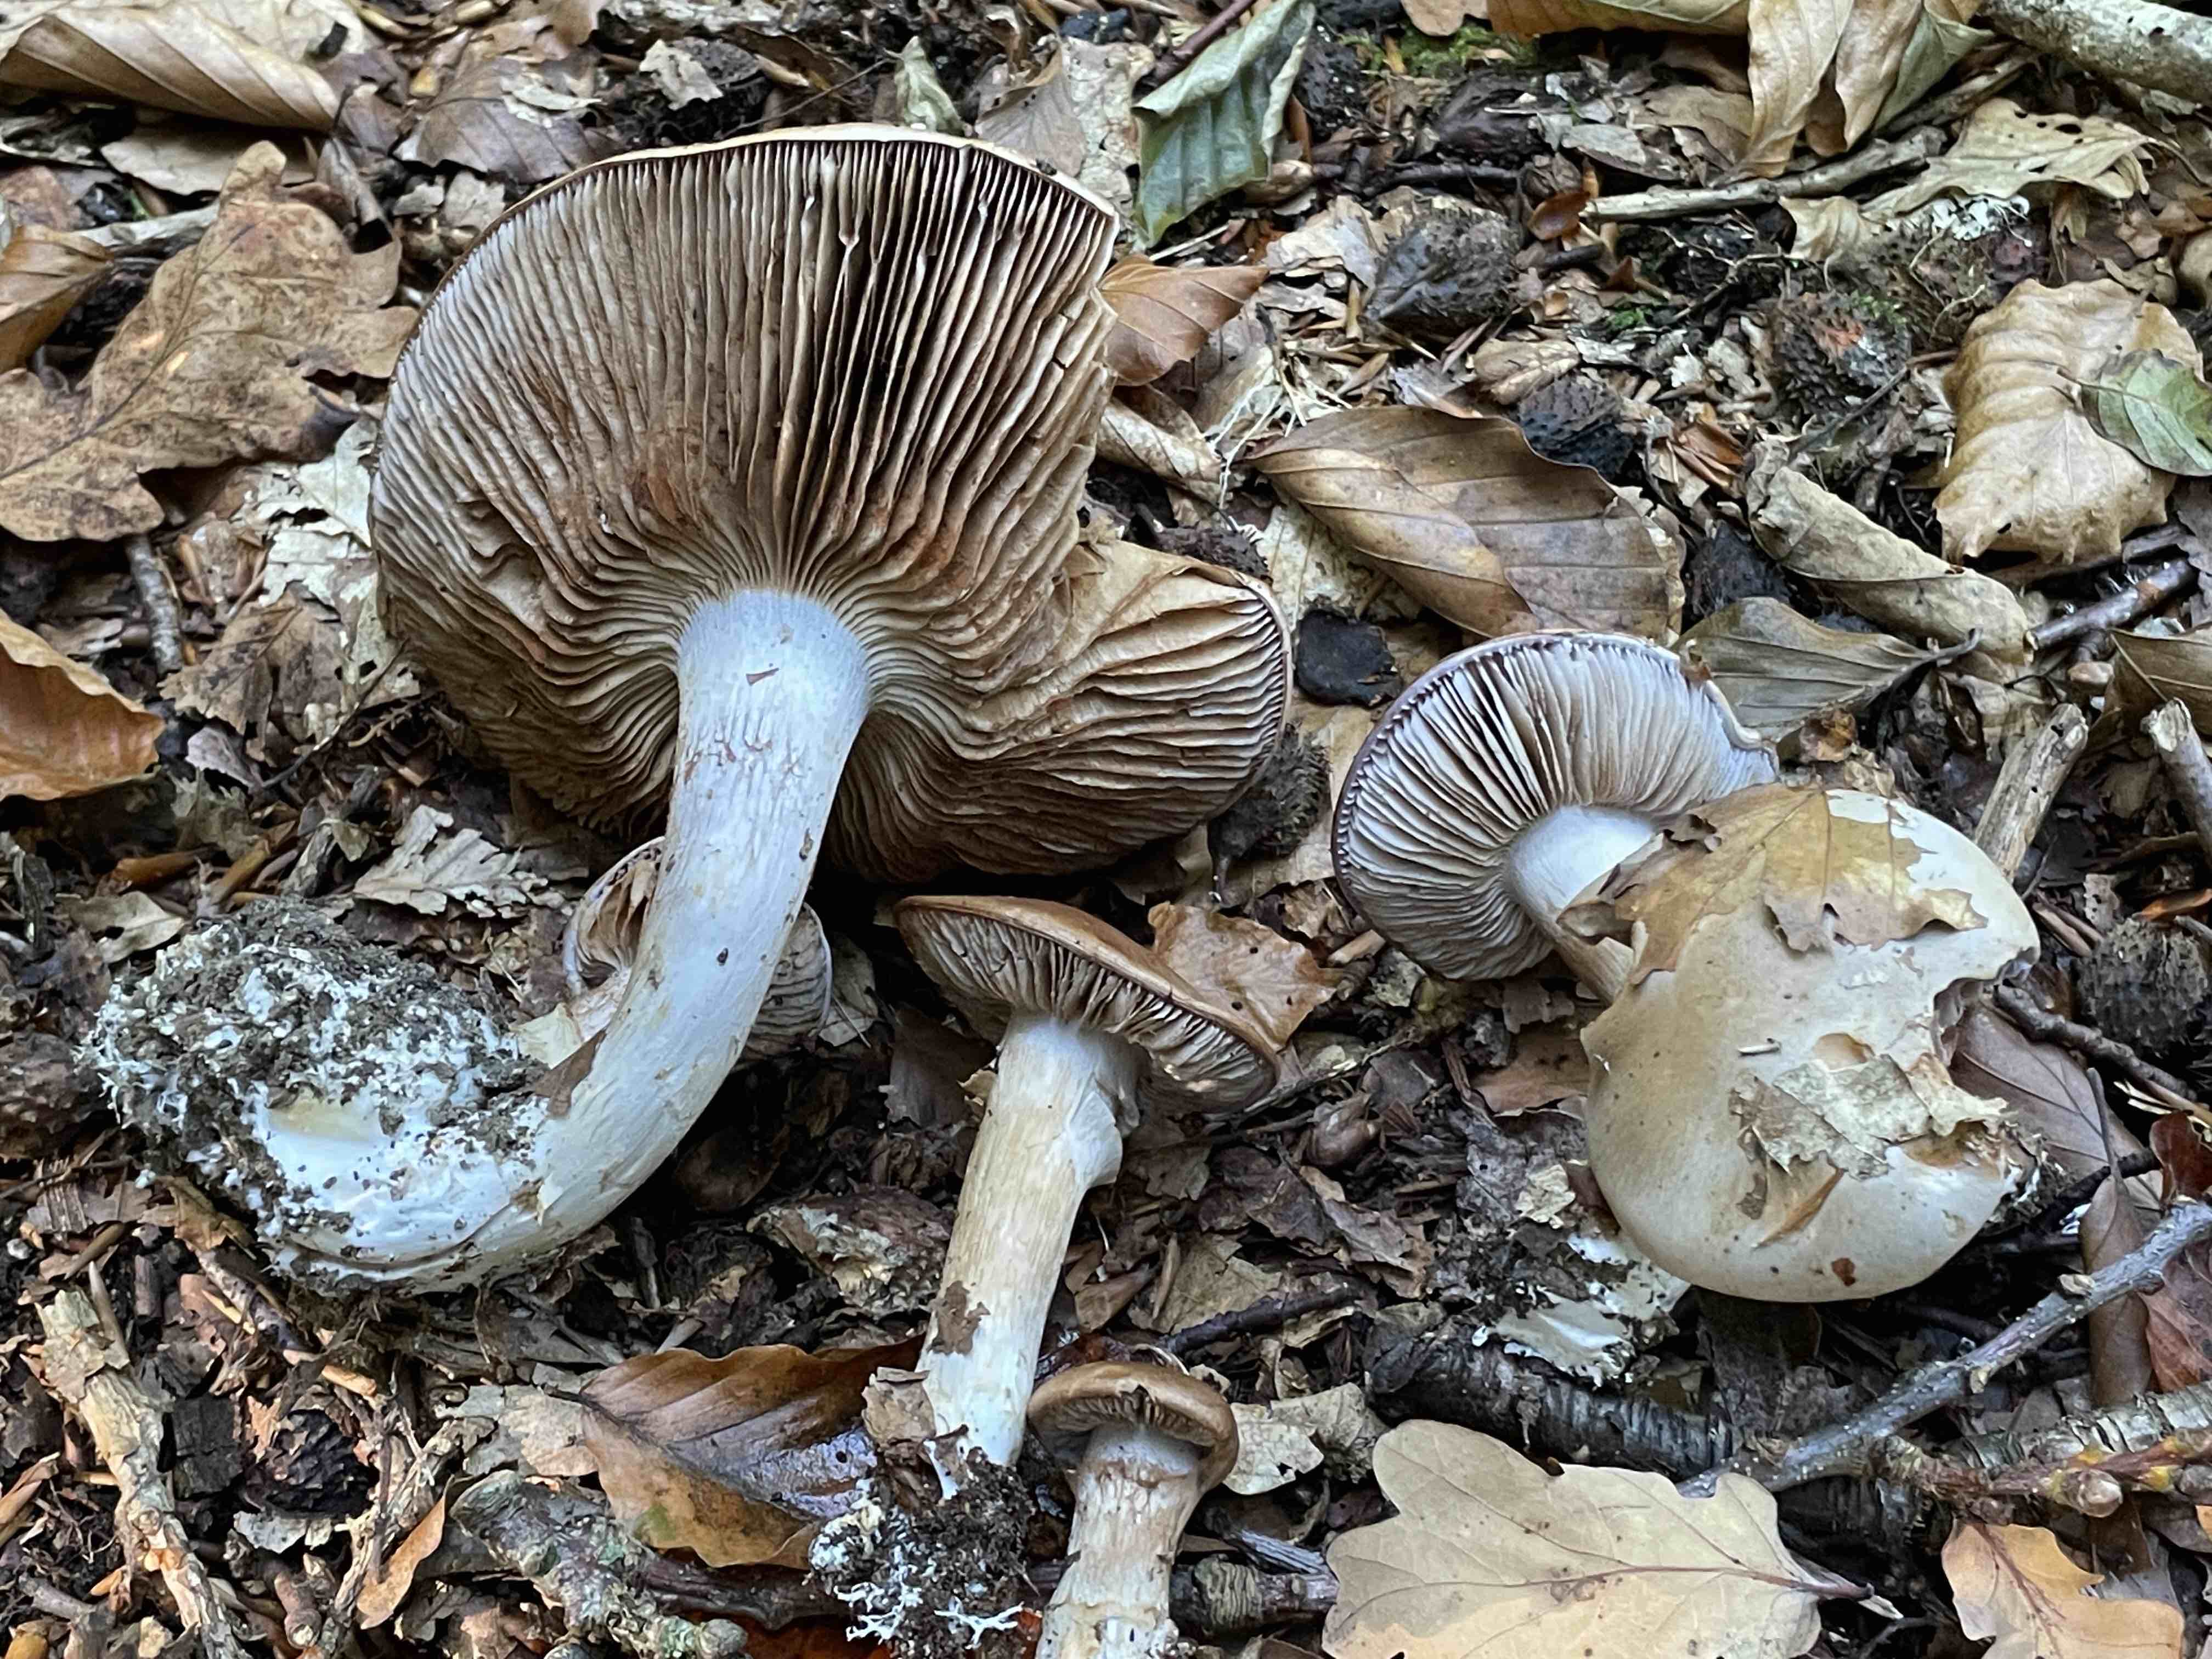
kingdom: Fungi
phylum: Basidiomycota
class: Agaricomycetes
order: Agaricales
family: Cortinariaceae
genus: Cortinarius
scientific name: Cortinarius largus
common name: violetrandet slørhat
